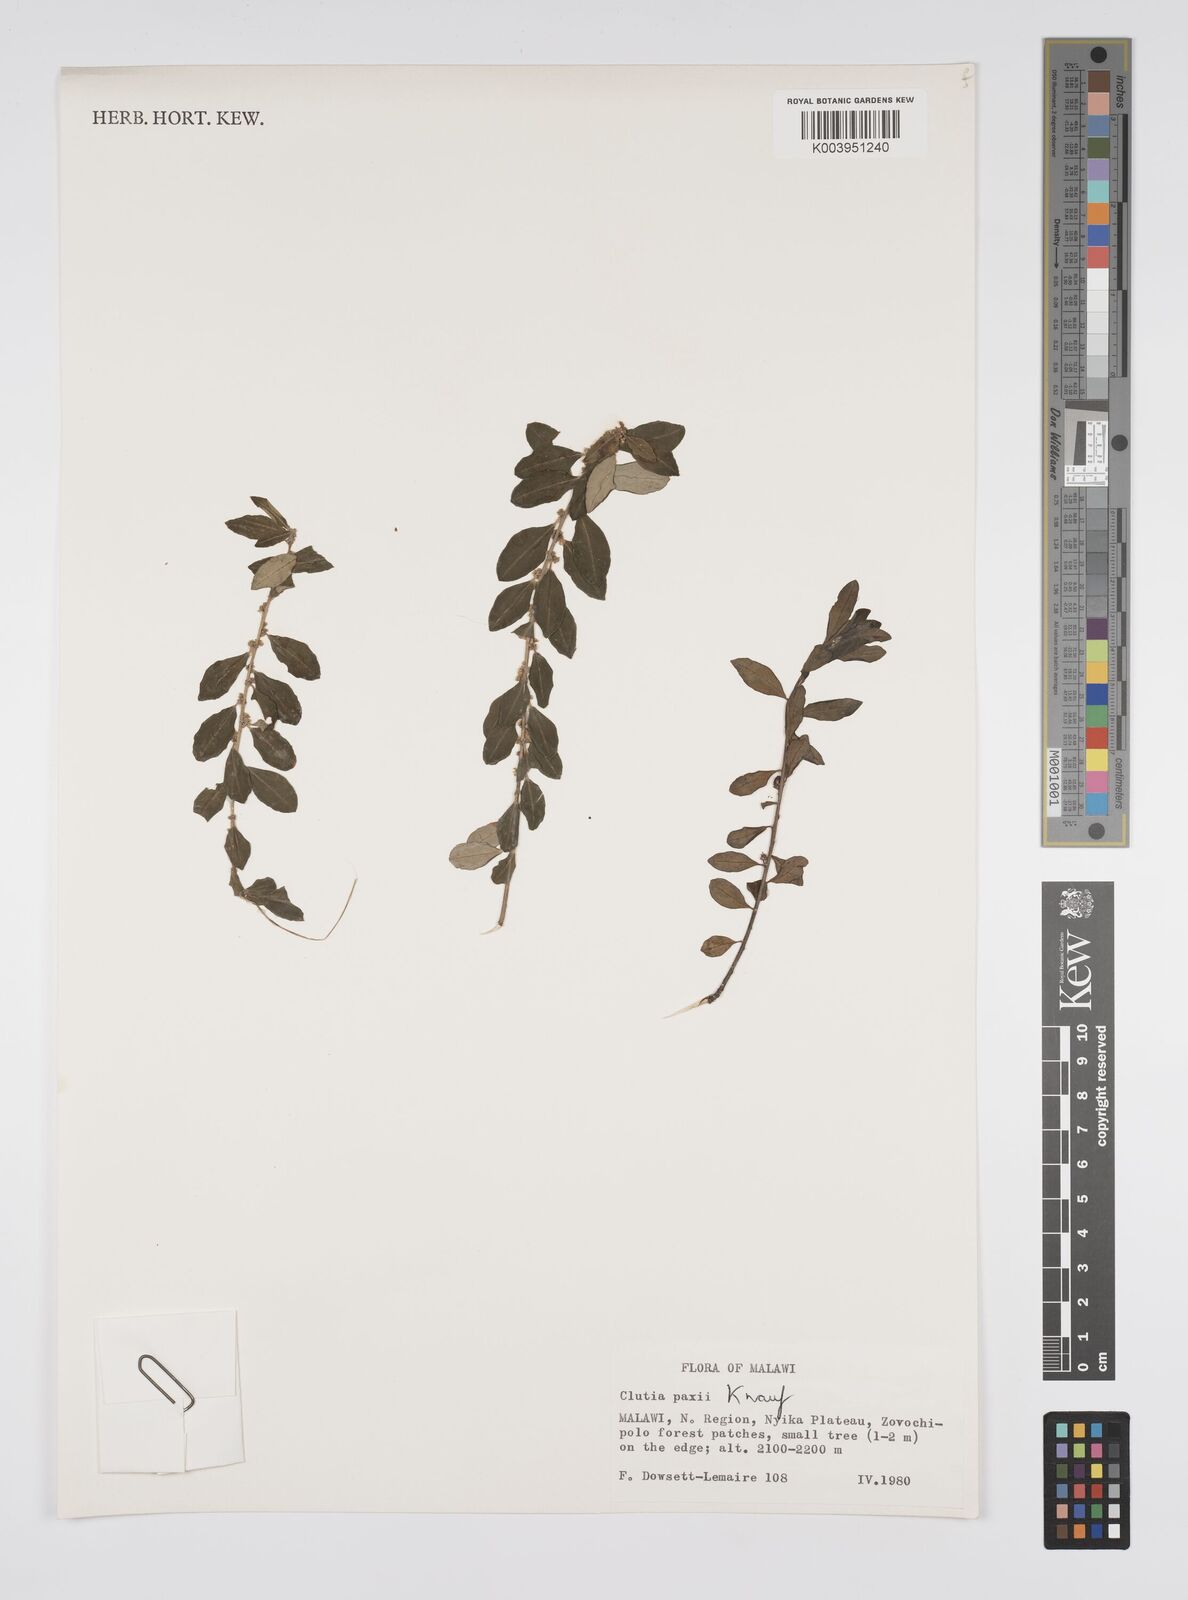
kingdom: Plantae
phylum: Tracheophyta
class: Magnoliopsida
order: Malpighiales
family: Peraceae
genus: Clutia
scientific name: Clutia paxii
